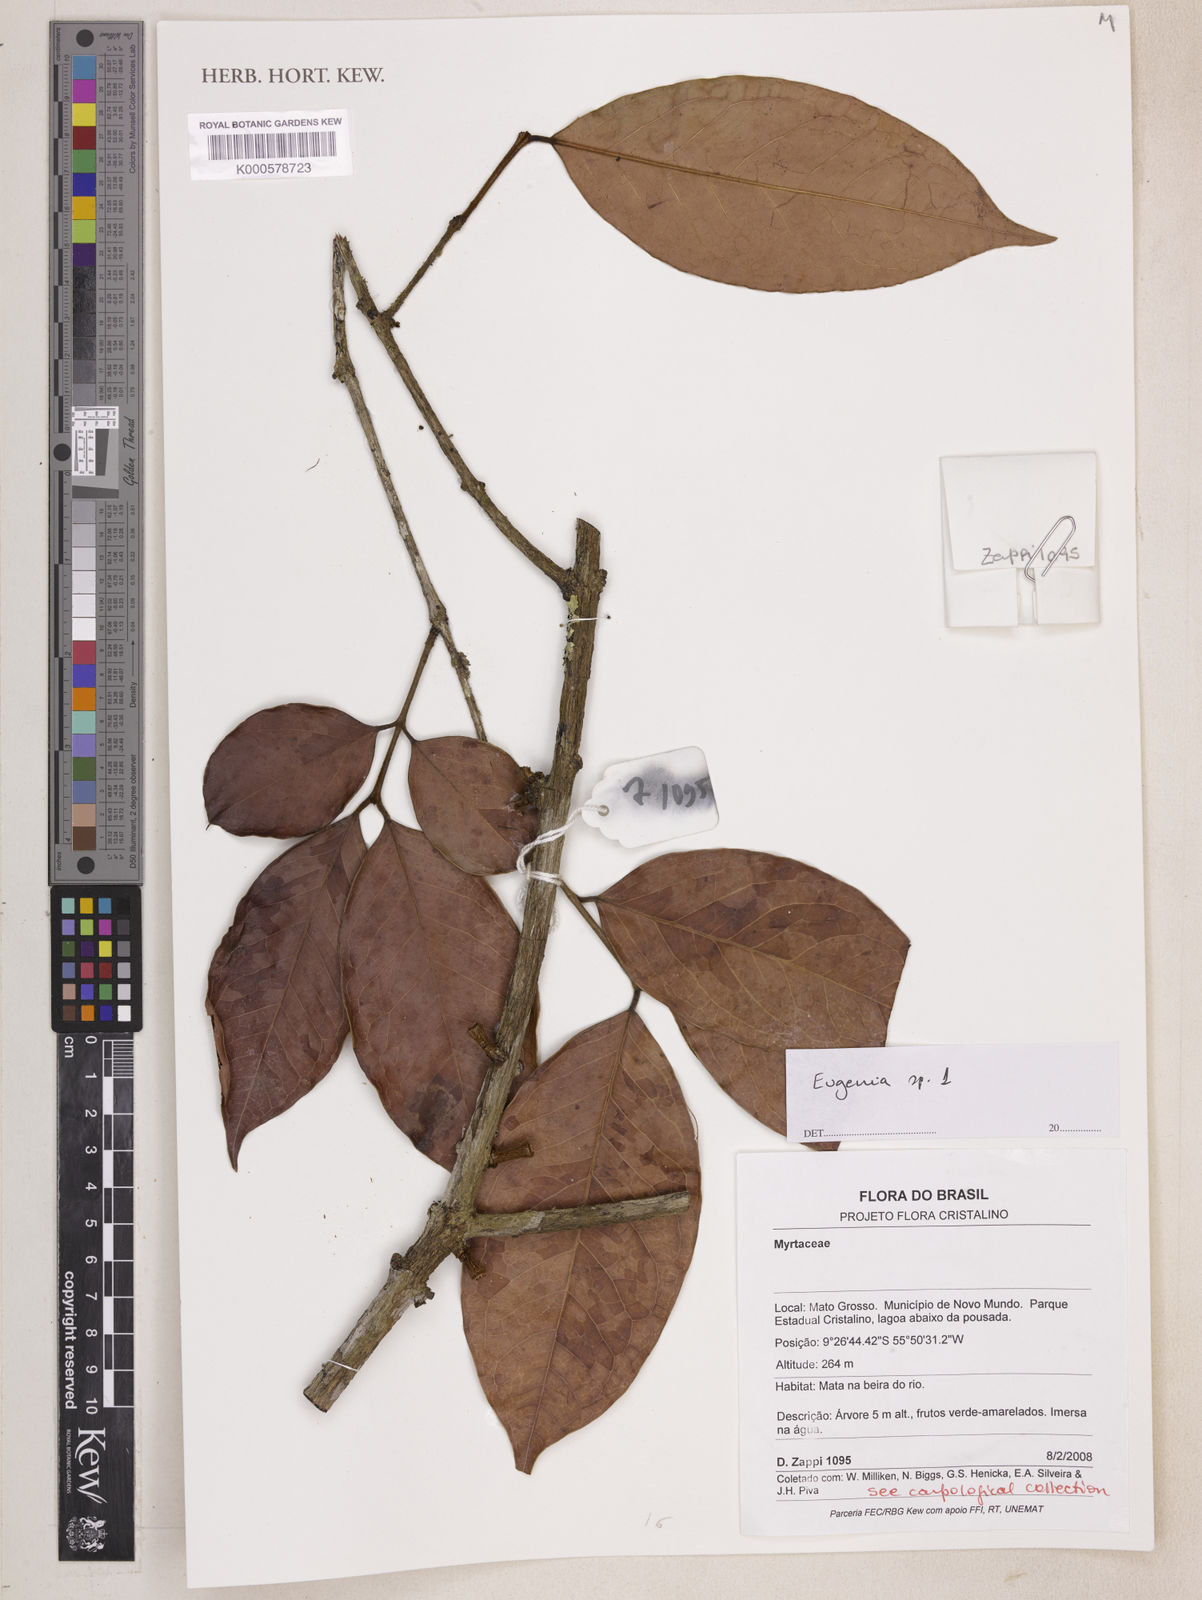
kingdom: Plantae
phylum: Tracheophyta
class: Magnoliopsida
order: Myrtales
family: Myrtaceae
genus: Eugenia
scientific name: Eugenia
